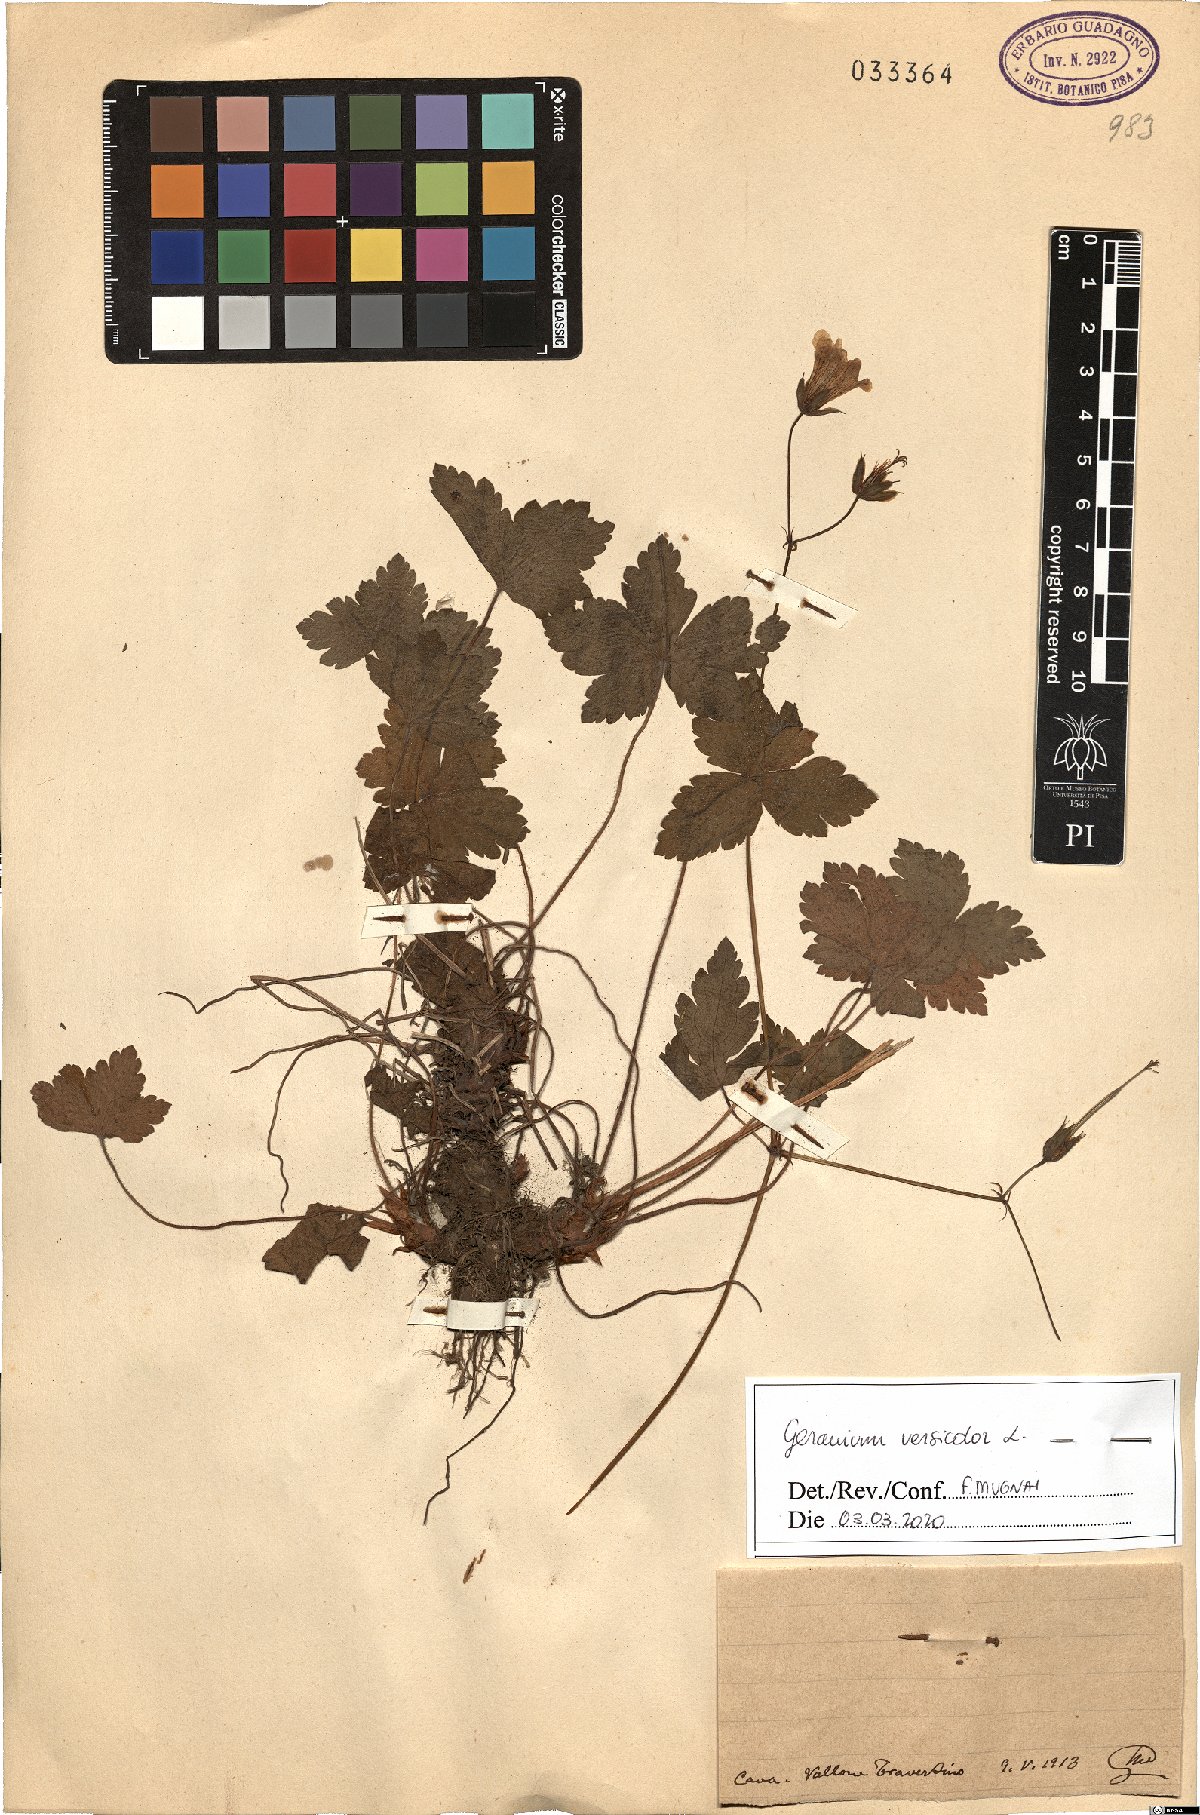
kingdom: Plantae
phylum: Tracheophyta
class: Magnoliopsida
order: Geraniales
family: Geraniaceae
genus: Geranium
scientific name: Geranium versicolor
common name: Pencilled crane's-bill
